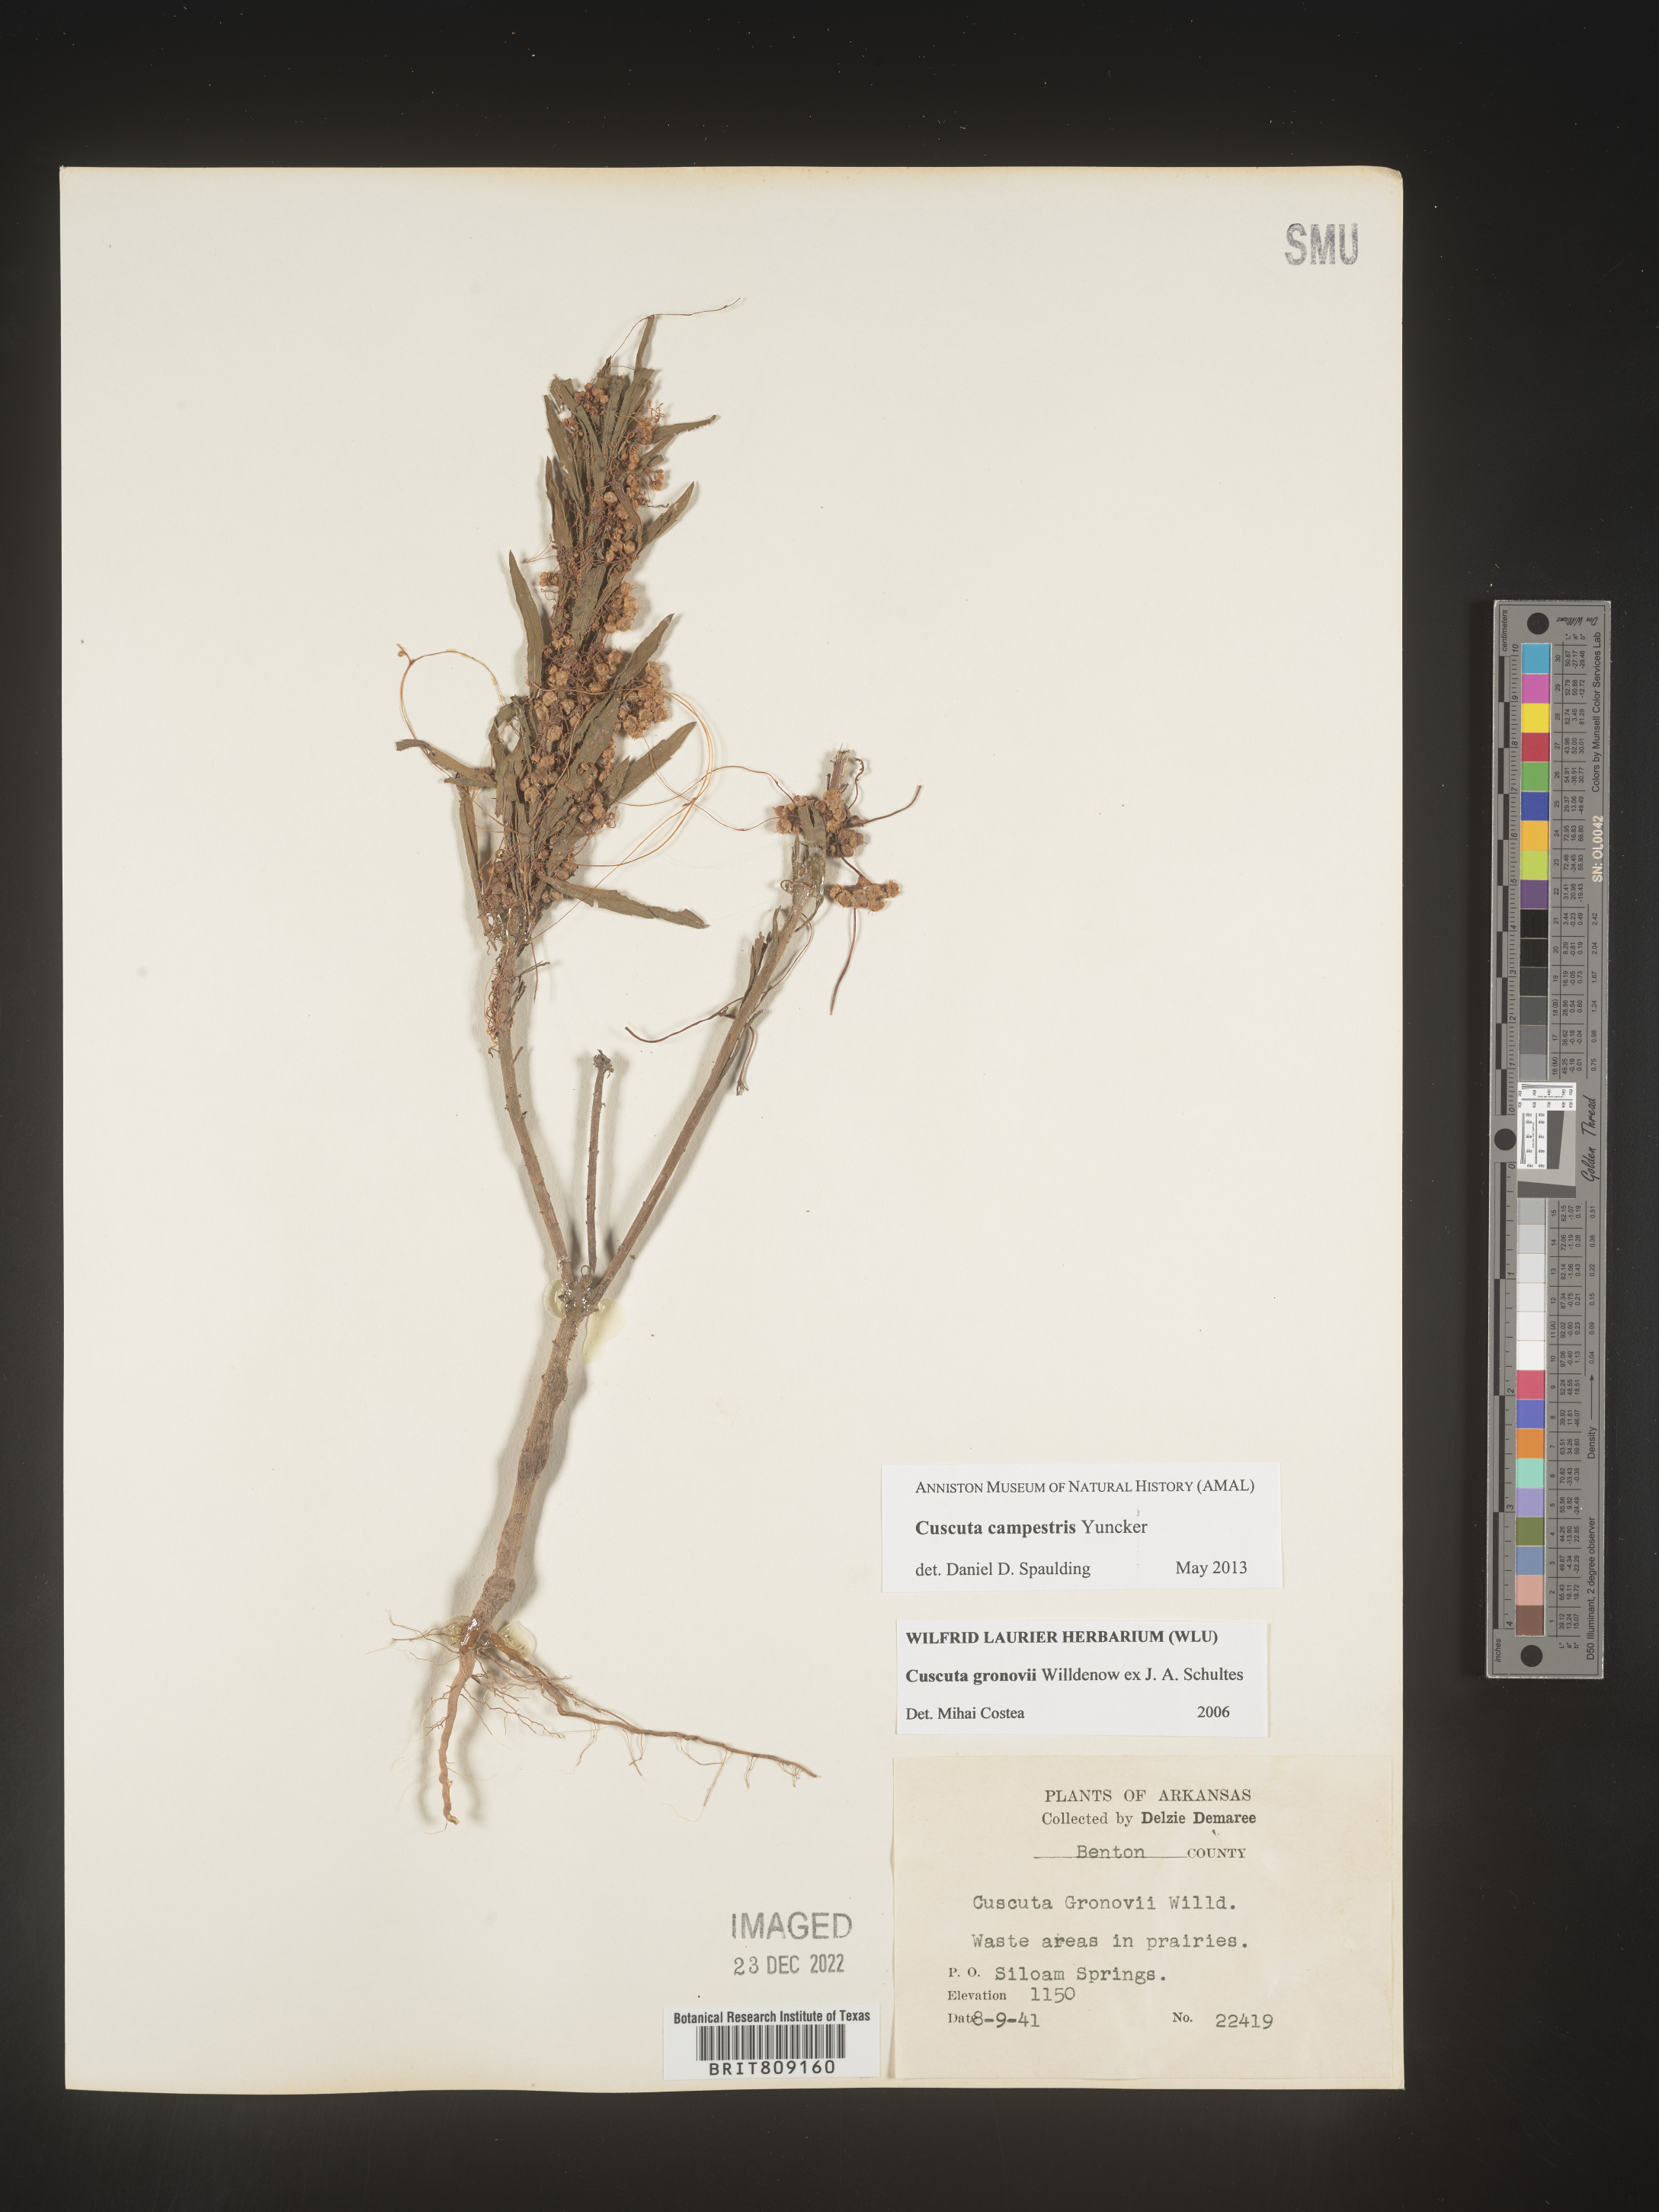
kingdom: Plantae
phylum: Tracheophyta
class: Magnoliopsida
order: Solanales
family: Convolvulaceae
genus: Cuscuta
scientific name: Cuscuta campestris
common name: Yellow dodder
